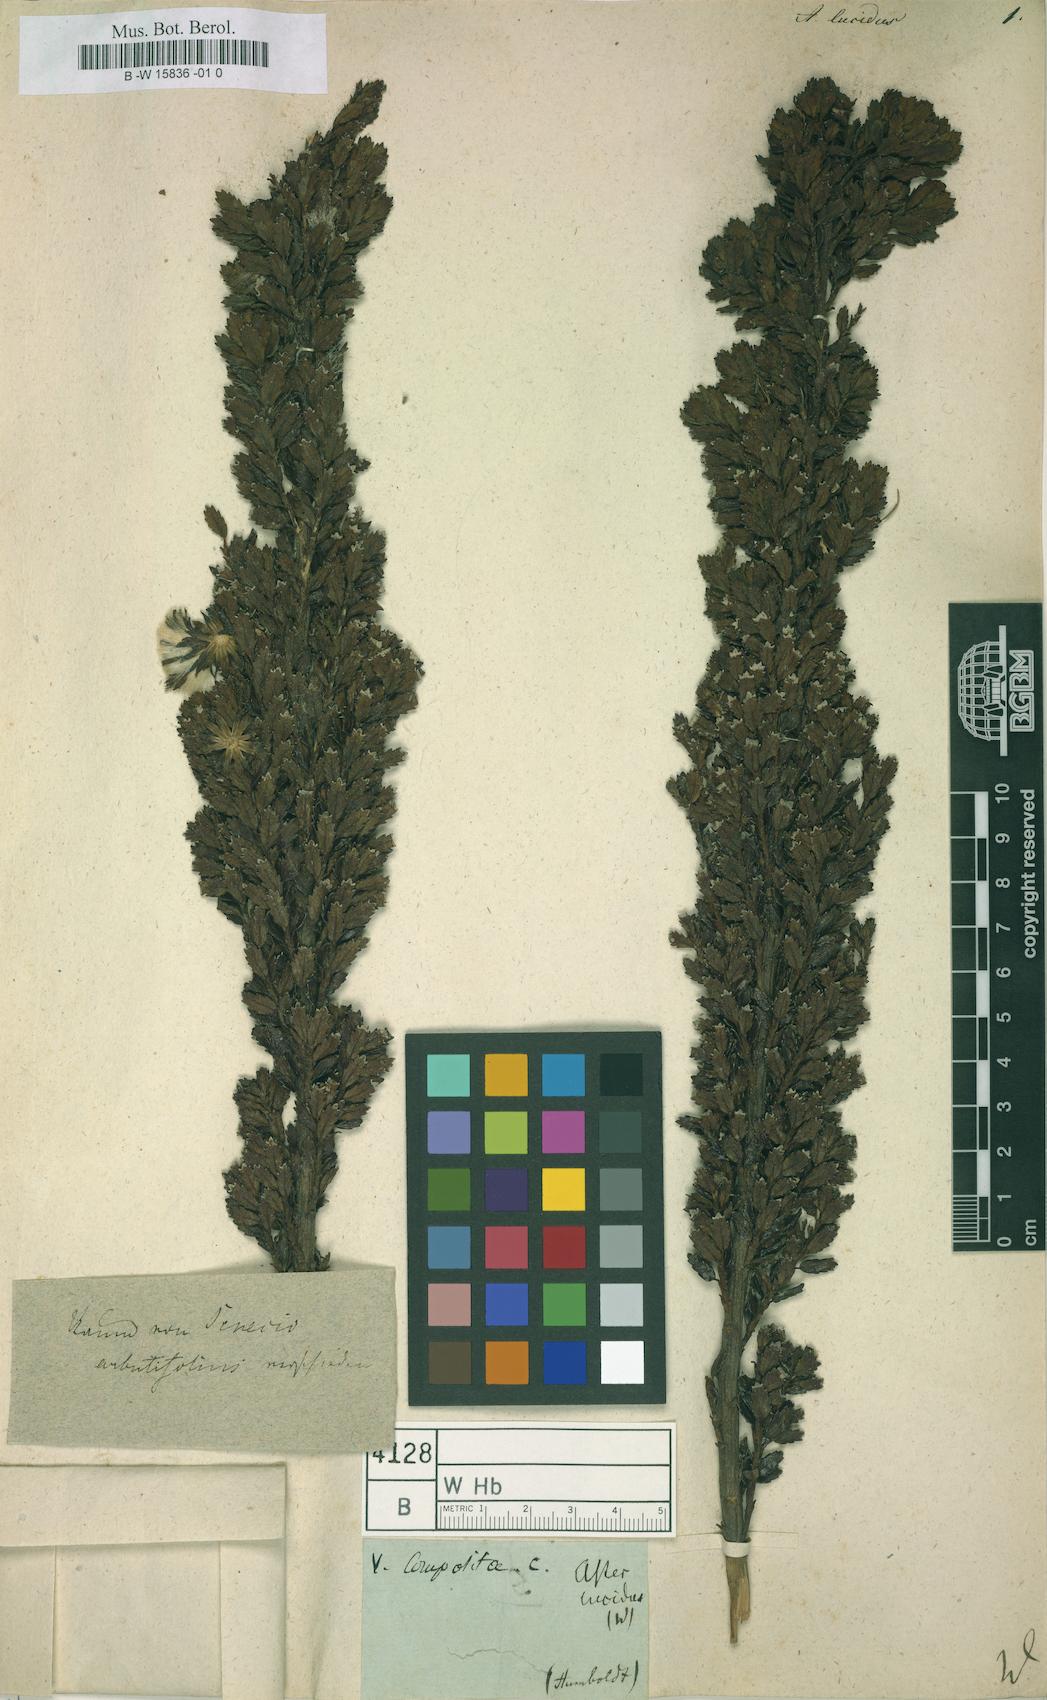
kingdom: Plantae
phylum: Tracheophyta
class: Magnoliopsida
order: Asterales
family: Asteraceae
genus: Aster
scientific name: Aster lucidus
